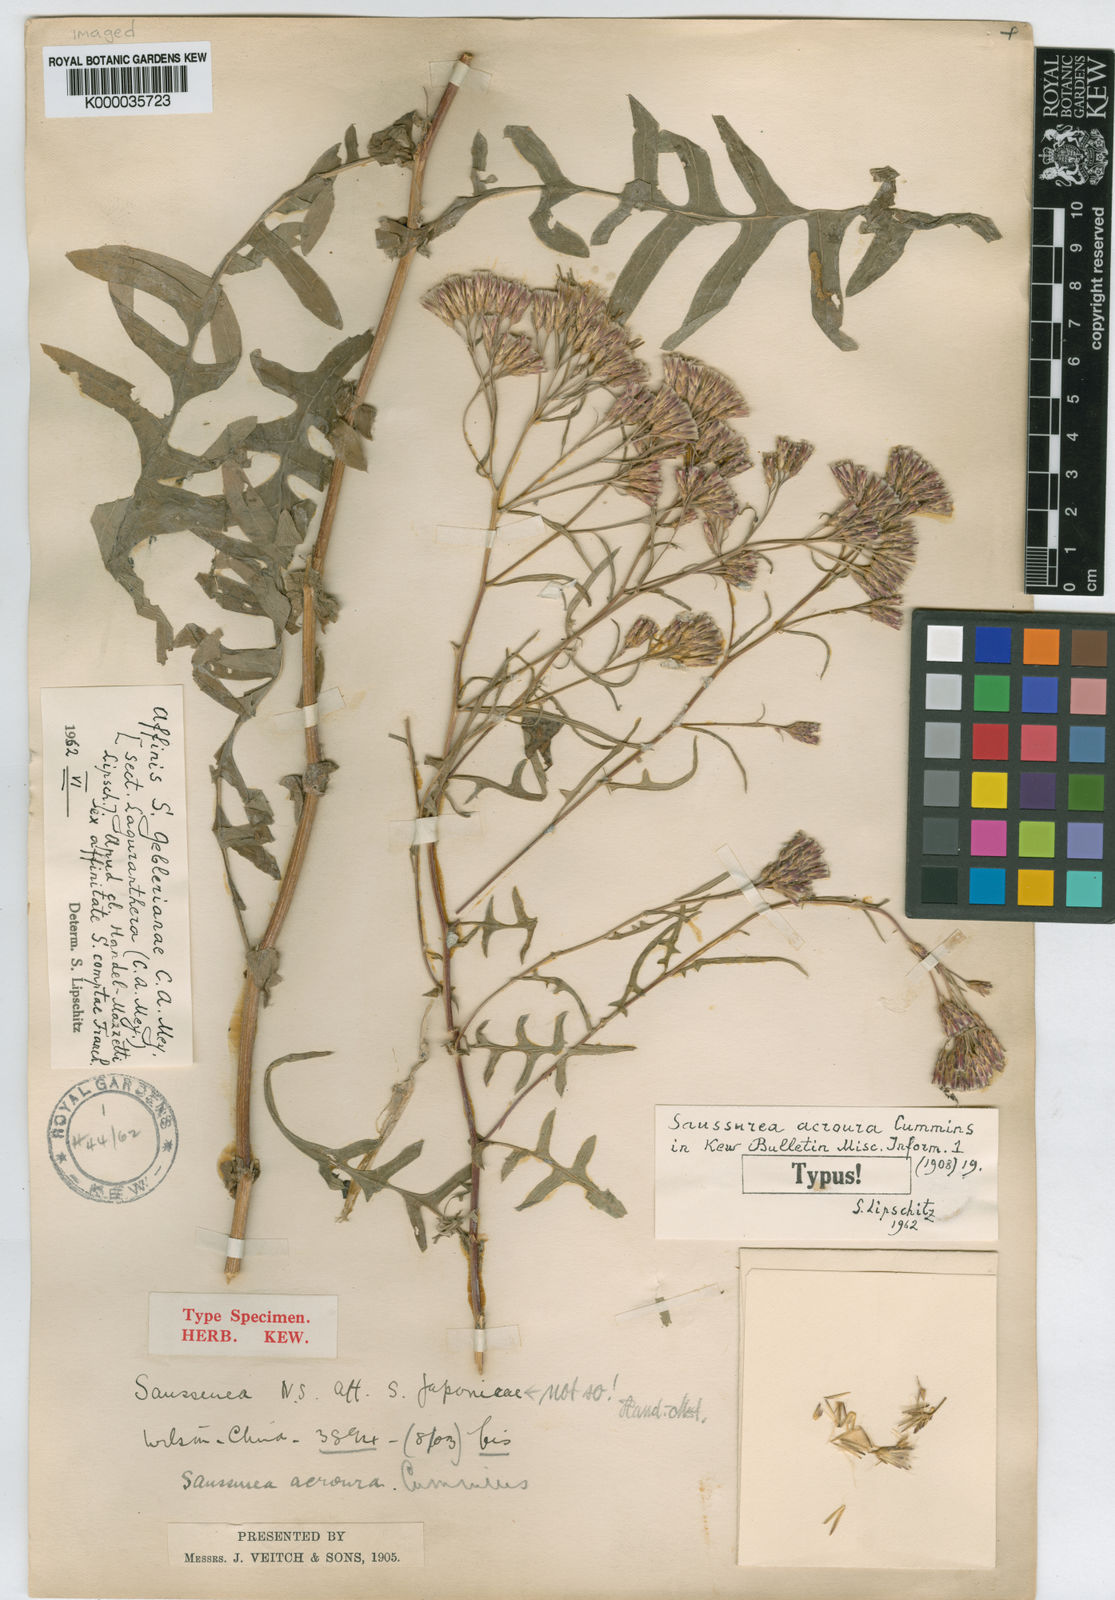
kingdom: Plantae
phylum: Tracheophyta
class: Magnoliopsida
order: Asterales
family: Asteraceae
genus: Saussurea
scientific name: Saussurea acroura
